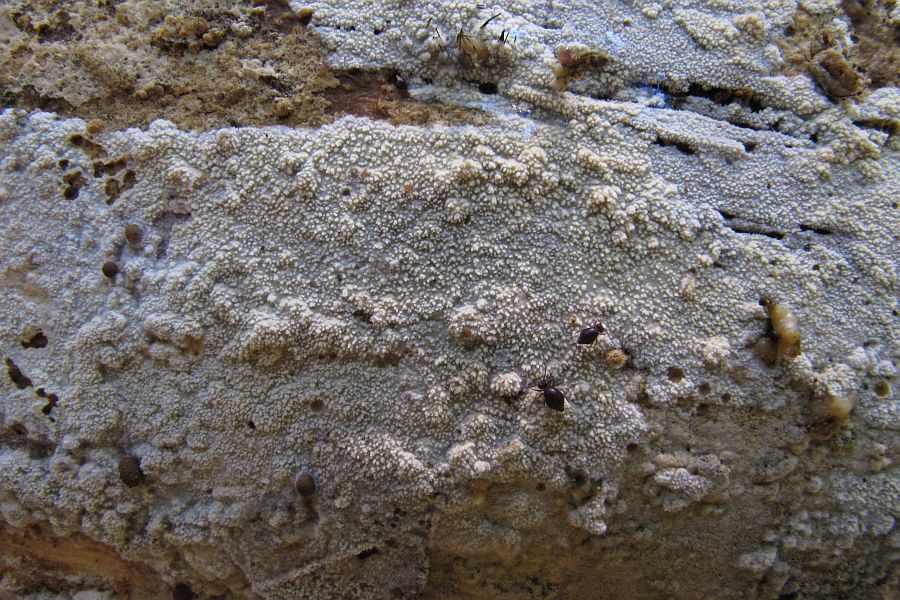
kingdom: Fungi
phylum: Basidiomycota
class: Agaricomycetes
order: Hymenochaetales
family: Schizoporaceae
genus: Xylodon
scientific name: Xylodon brevisetus
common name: tætvortet tandsvamp
